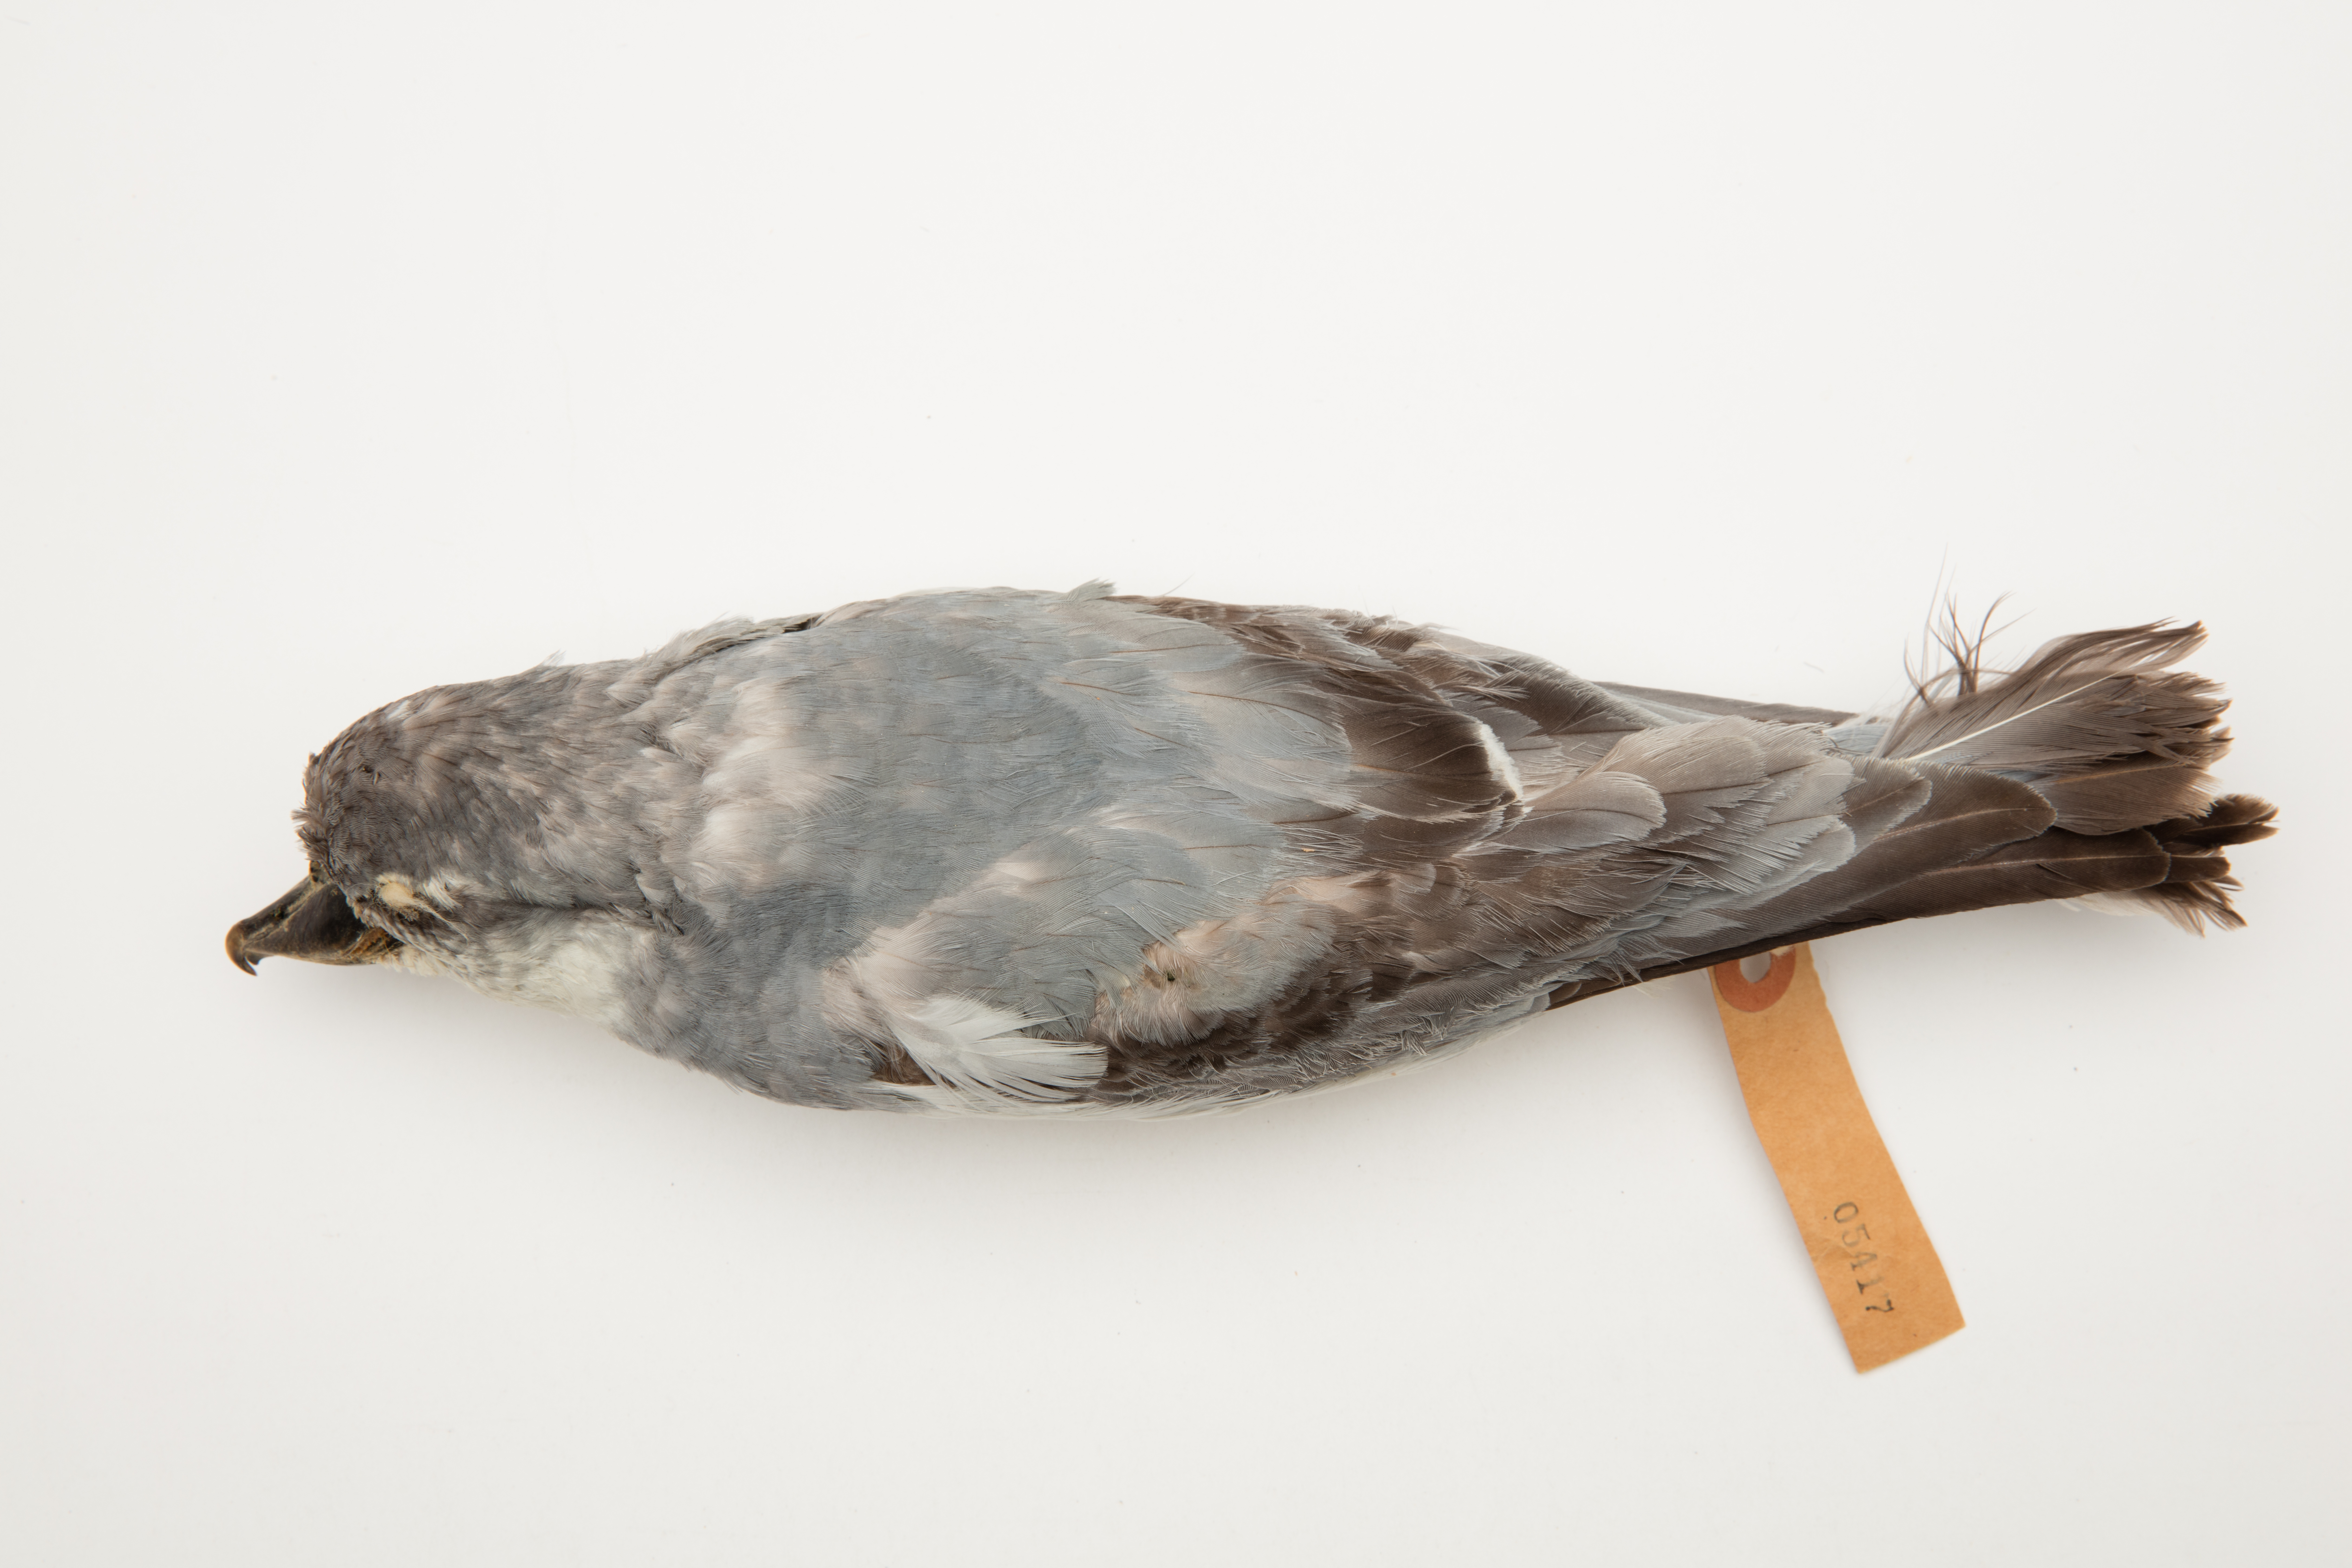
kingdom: Animalia
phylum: Chordata
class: Aves
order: Procellariiformes
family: Procellariidae
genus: Pachyptila
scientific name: Pachyptila vittata
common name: Broad-billed prion
